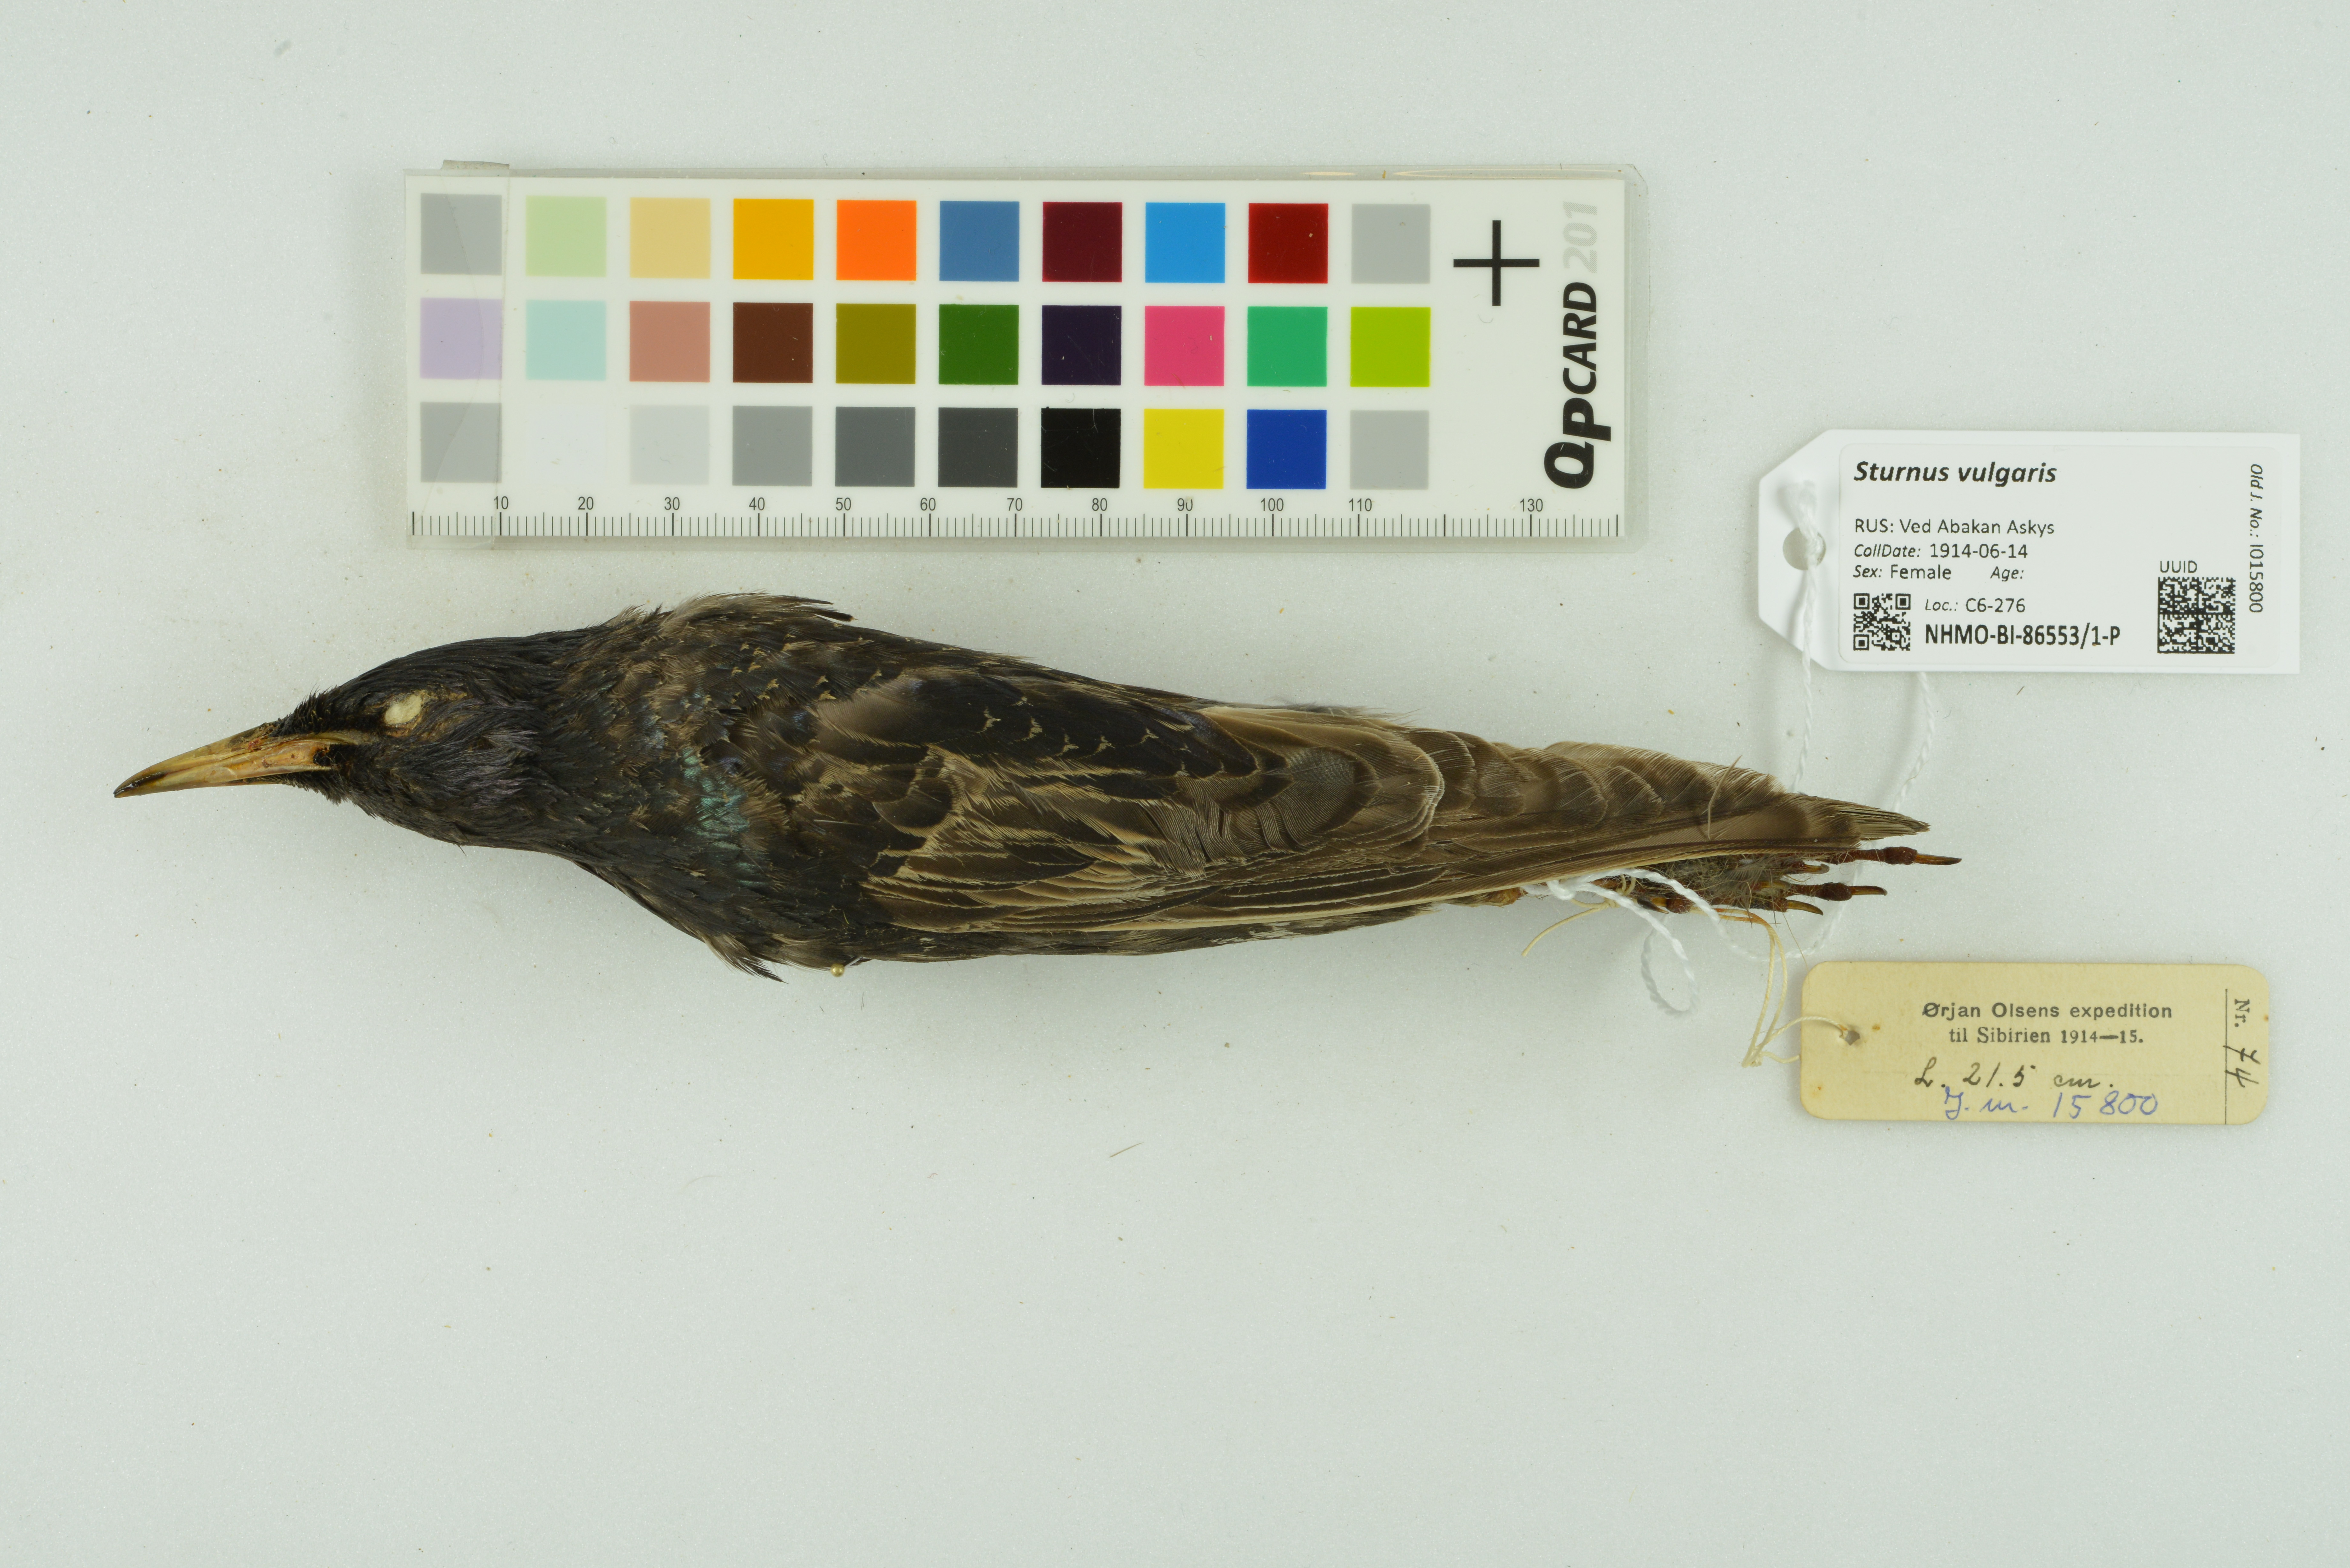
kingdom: Animalia
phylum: Chordata
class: Aves
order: Passeriformes
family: Sturnidae
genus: Sturnus
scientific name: Sturnus vulgaris
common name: Common starling
